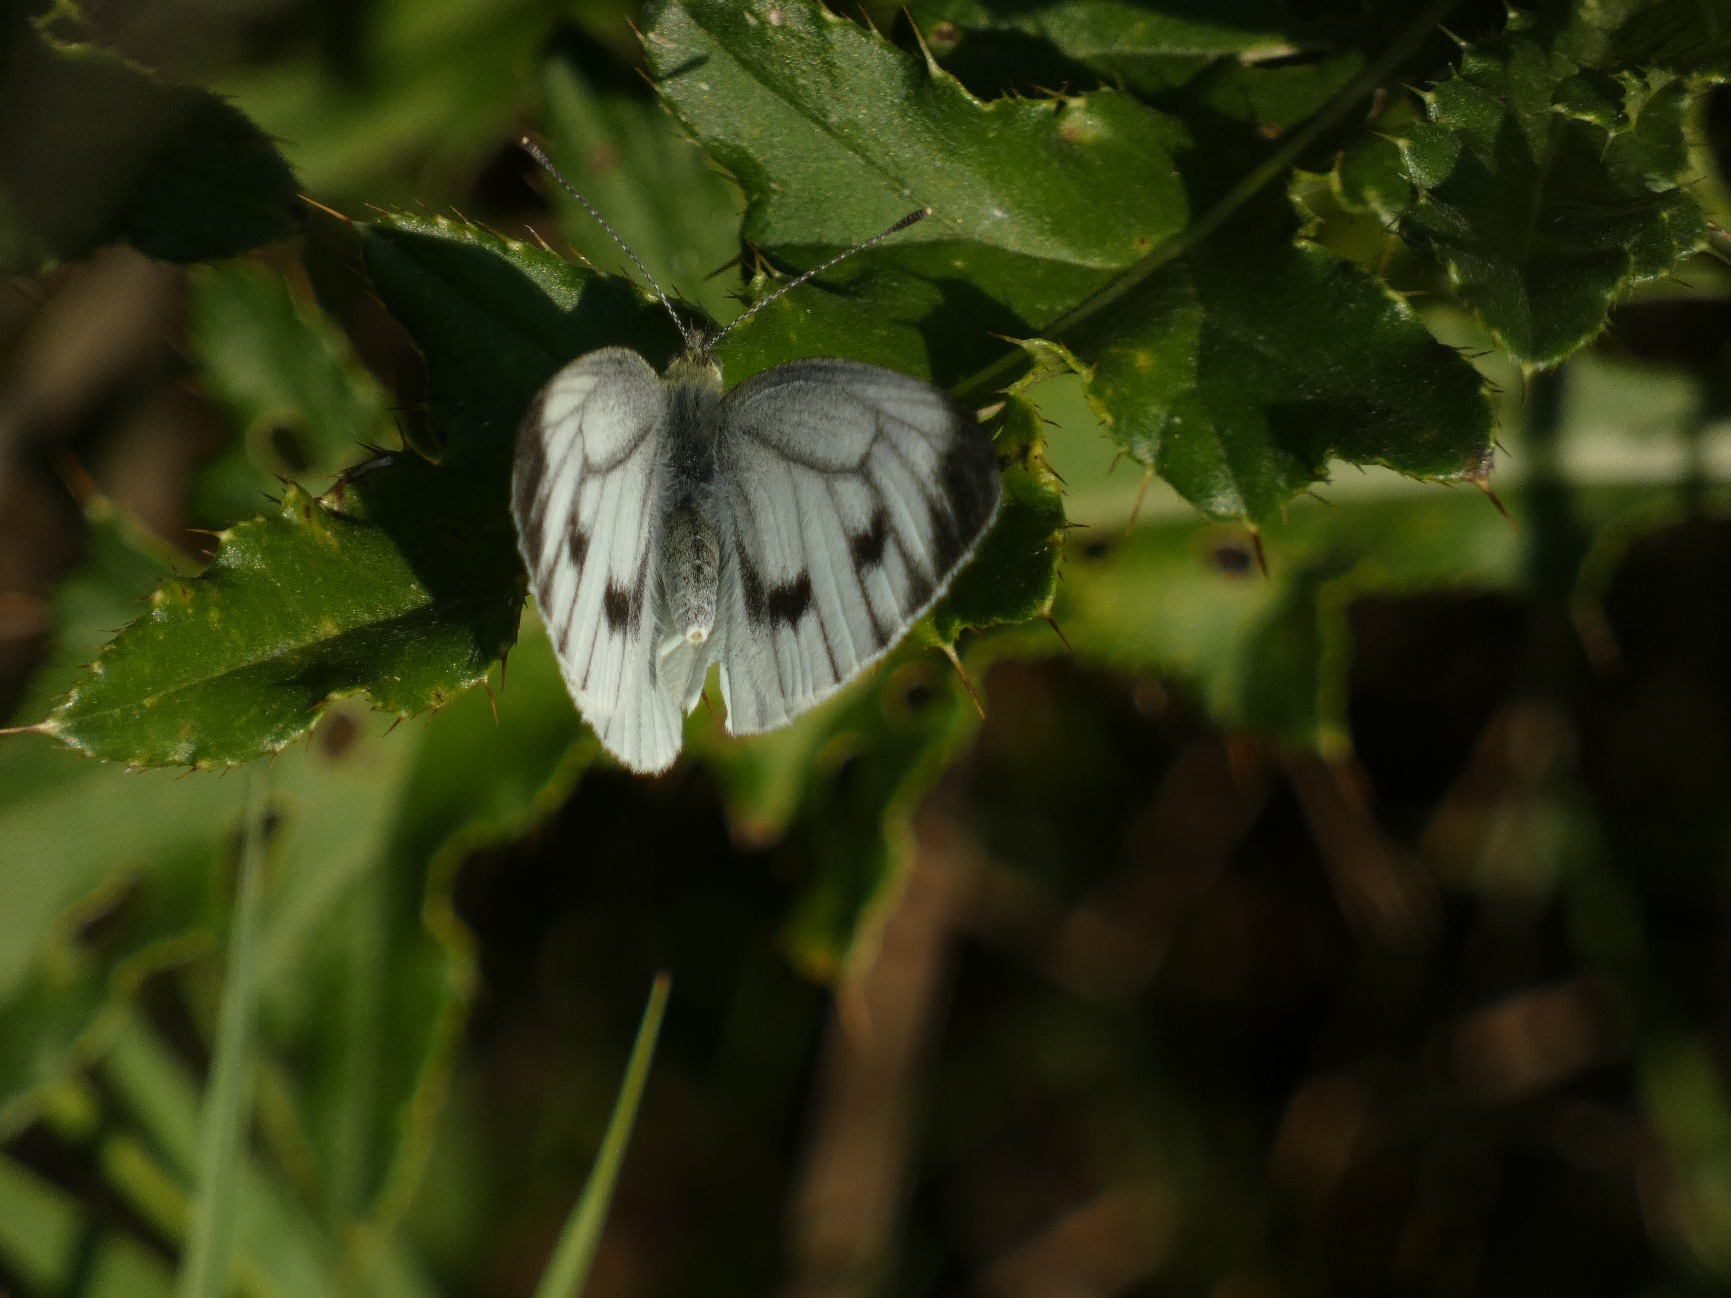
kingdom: Animalia
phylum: Arthropoda
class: Insecta
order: Lepidoptera
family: Pieridae
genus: Pieris
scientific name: Pieris napi
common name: Grønåret kålsommerfugl
